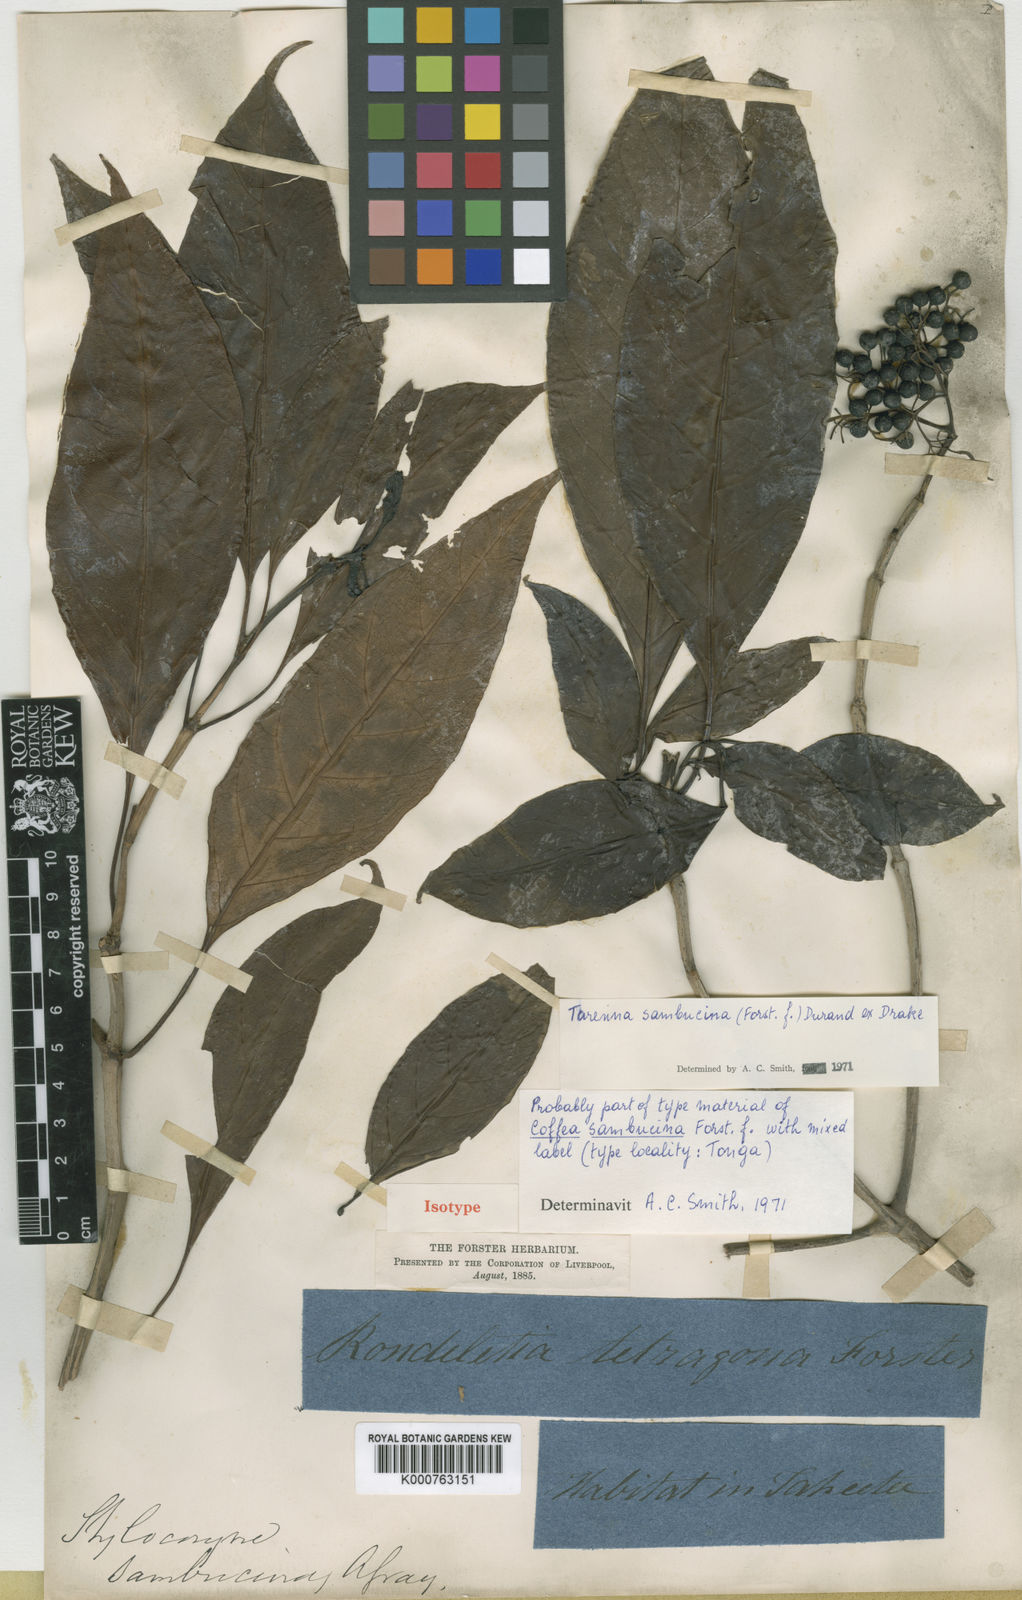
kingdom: Plantae
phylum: Tracheophyta
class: Magnoliopsida
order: Gentianales
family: Rubiaceae
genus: Tarenna
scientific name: Tarenna sambucina
